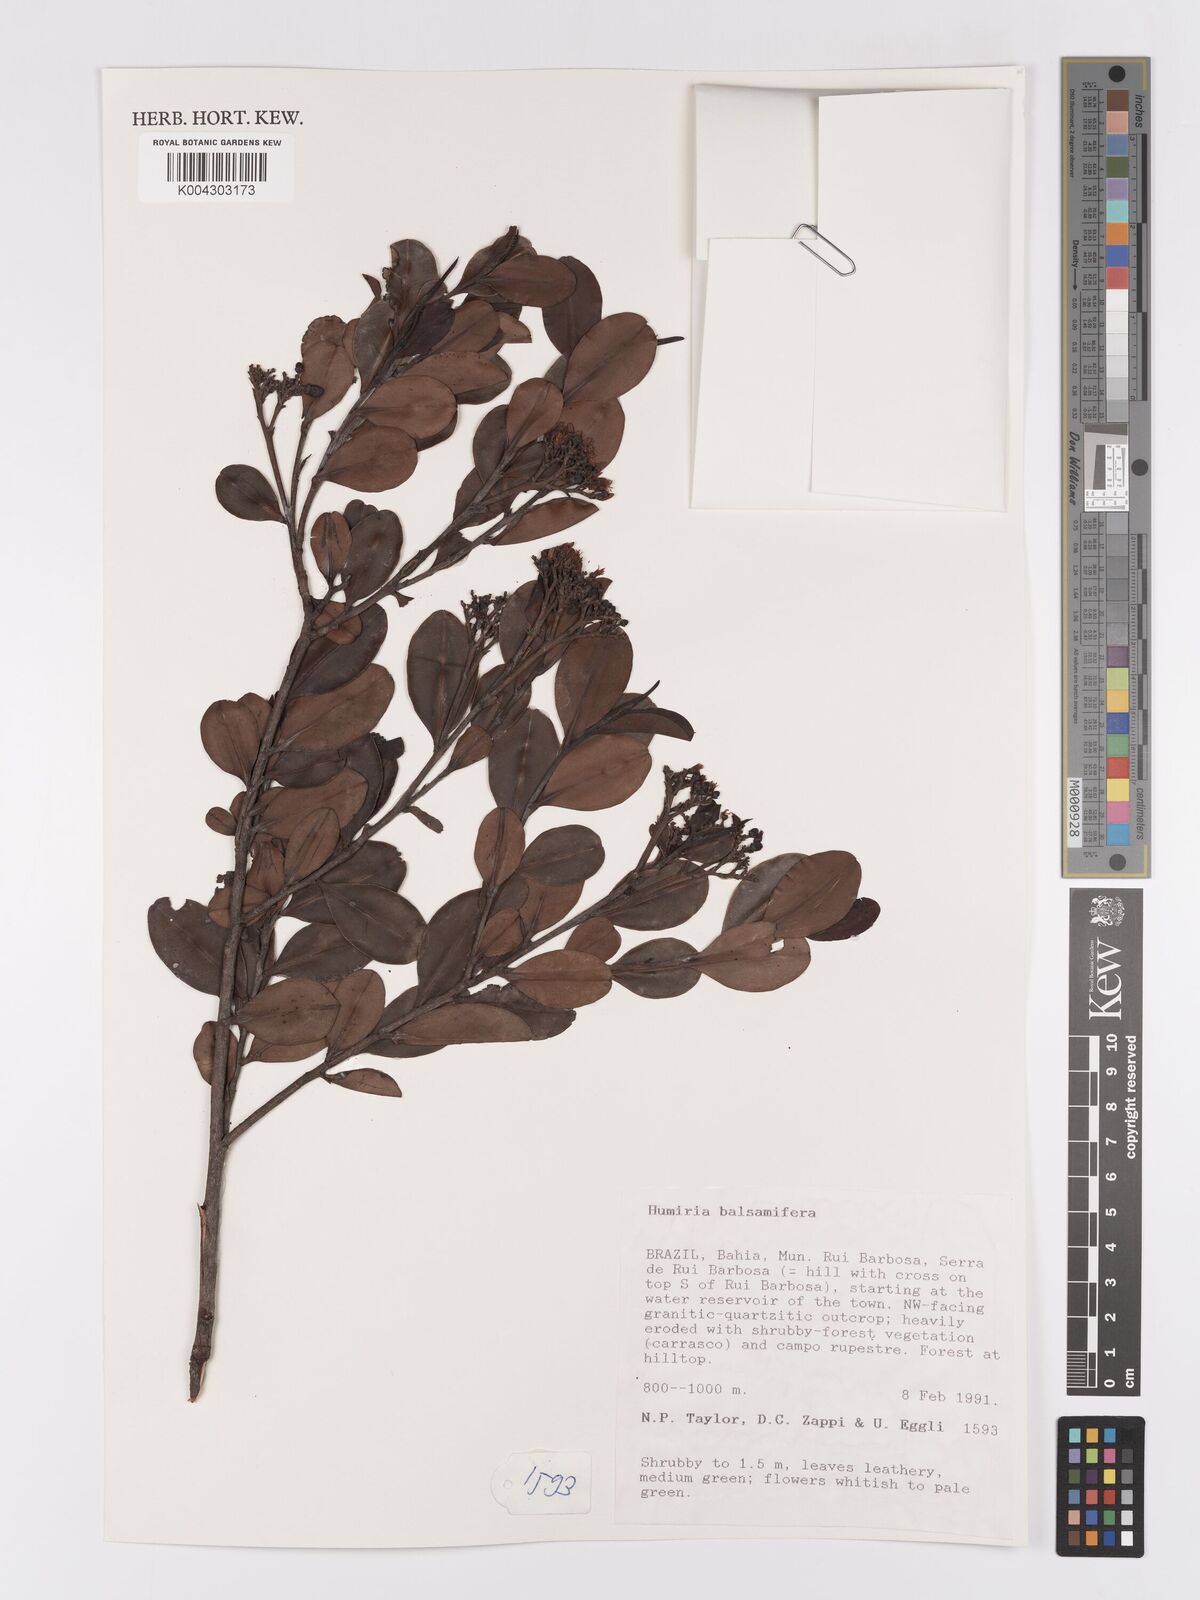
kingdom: Plantae
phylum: Tracheophyta
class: Magnoliopsida
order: Malpighiales
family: Humiriaceae
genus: Humiria
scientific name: Humiria parvifolia
